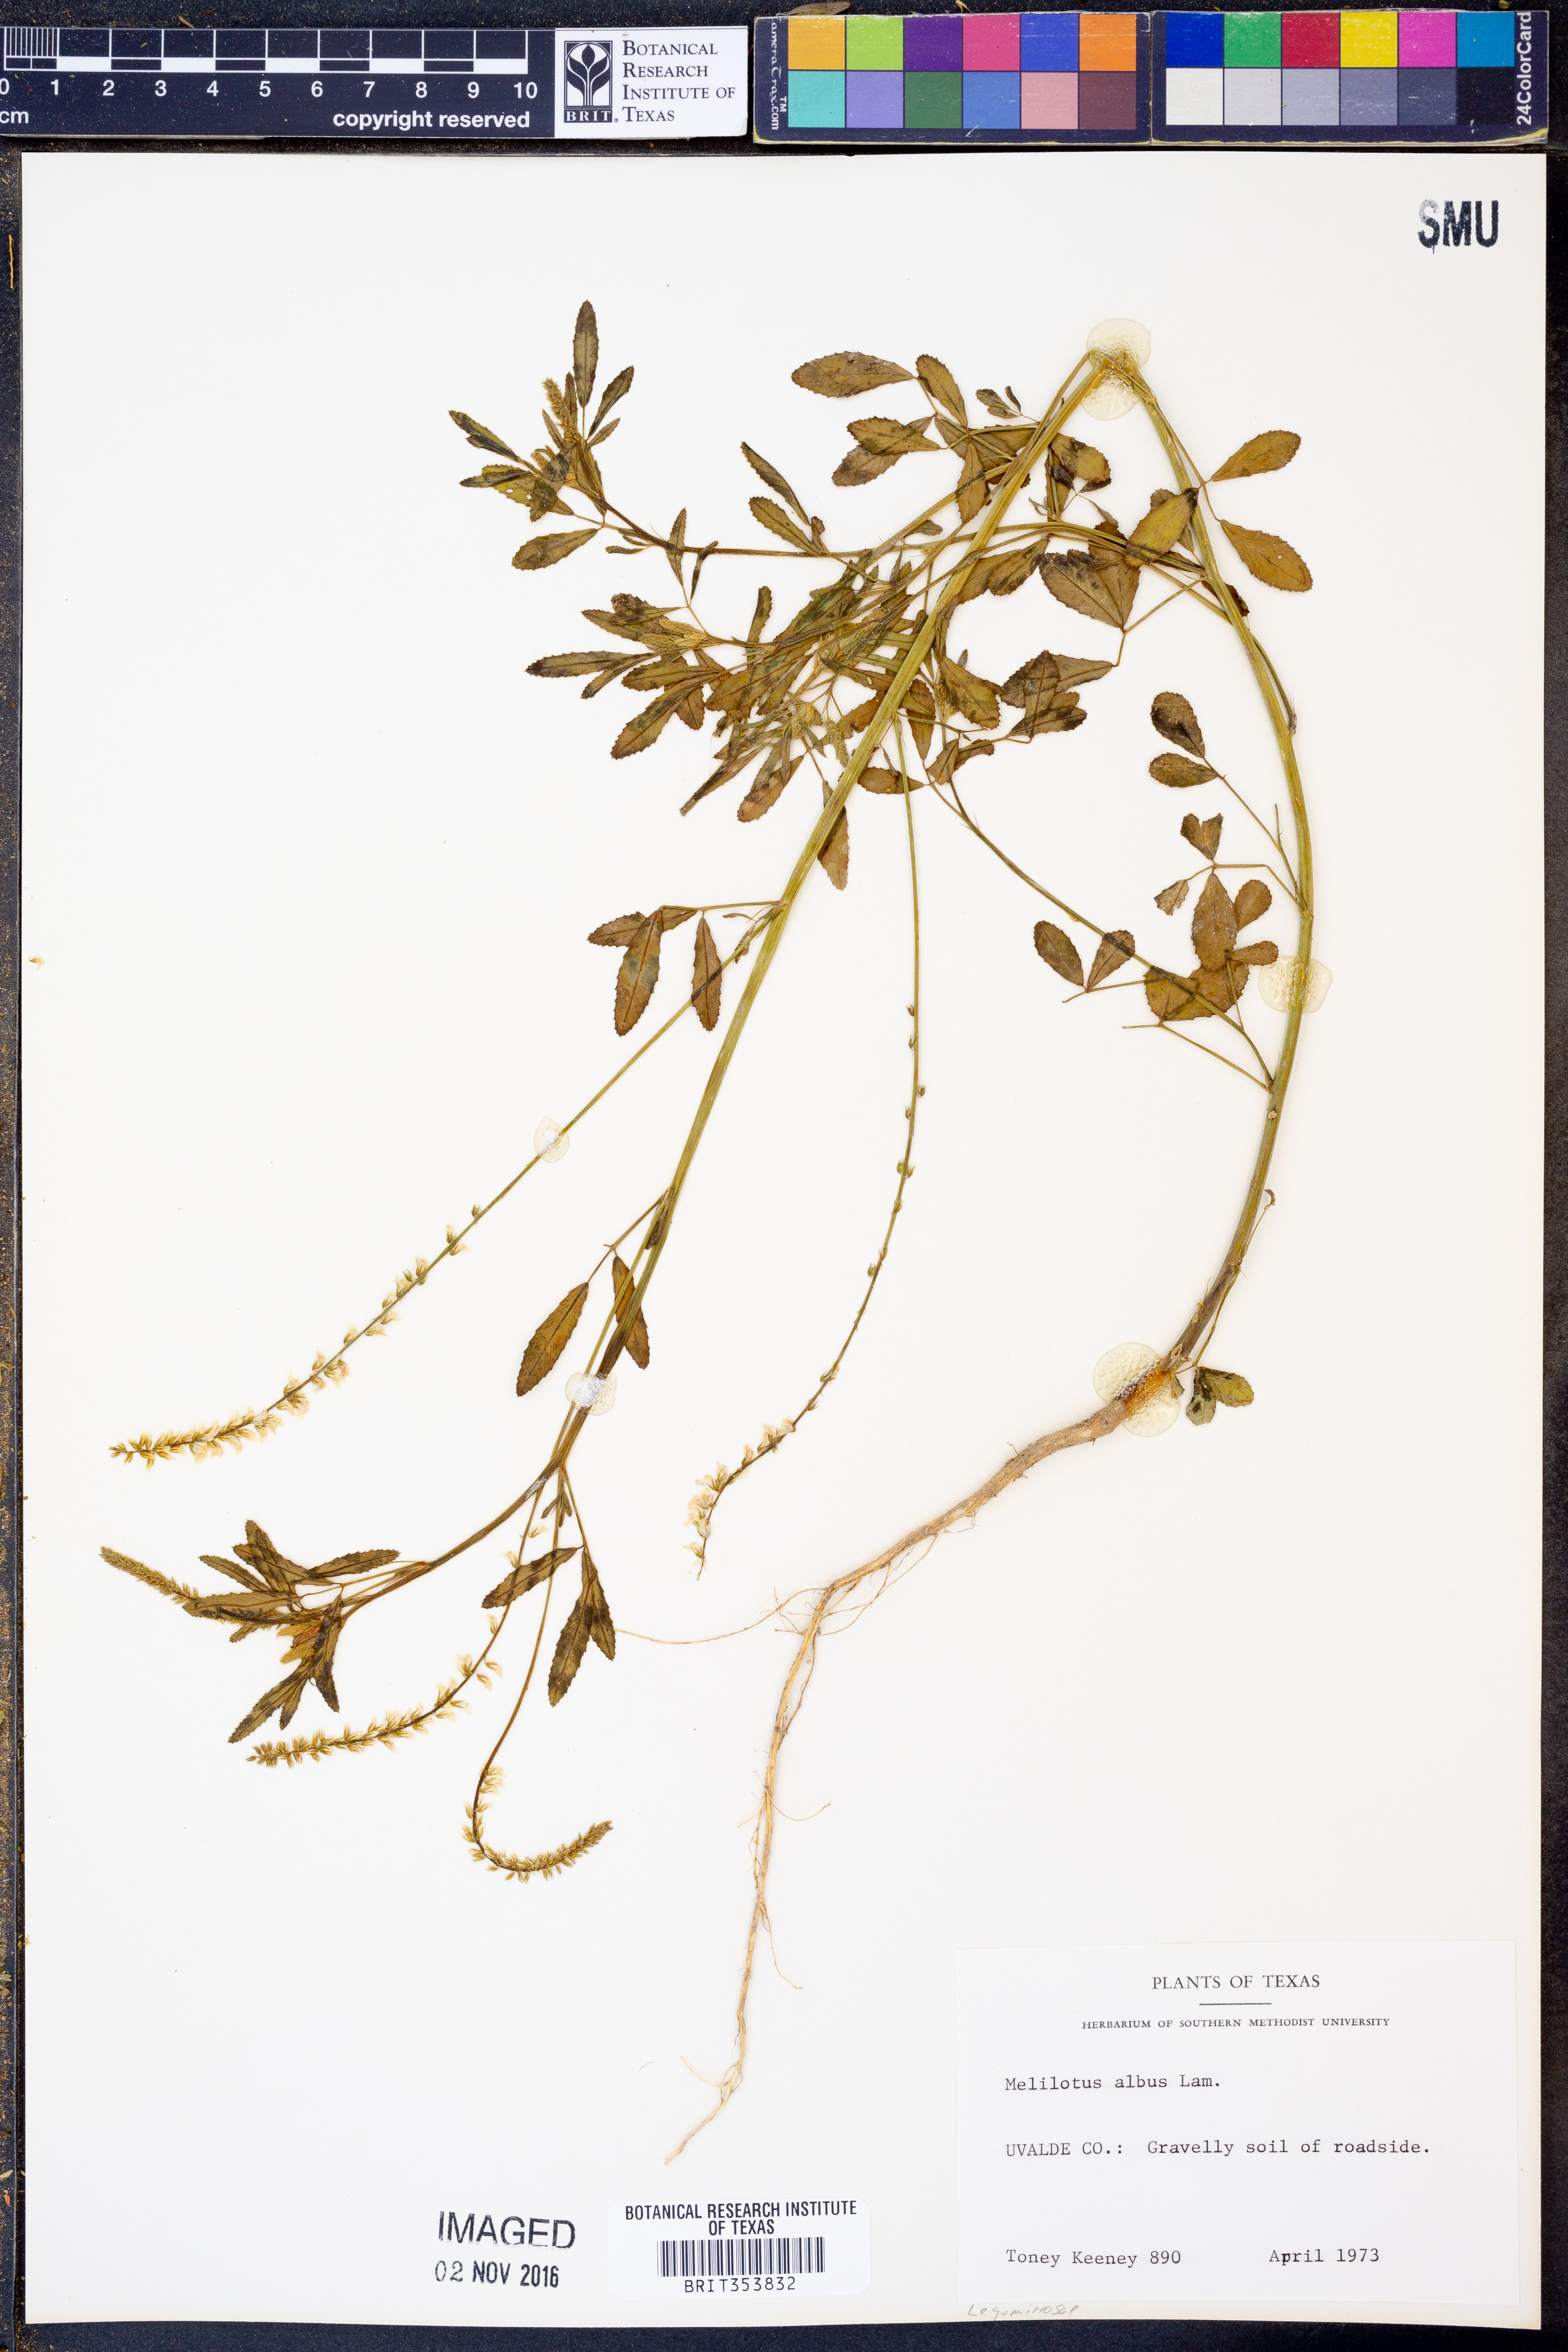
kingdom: Plantae
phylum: Tracheophyta
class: Magnoliopsida
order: Fabales
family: Fabaceae
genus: Melilotus
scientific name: Melilotus albus
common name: White melilot
